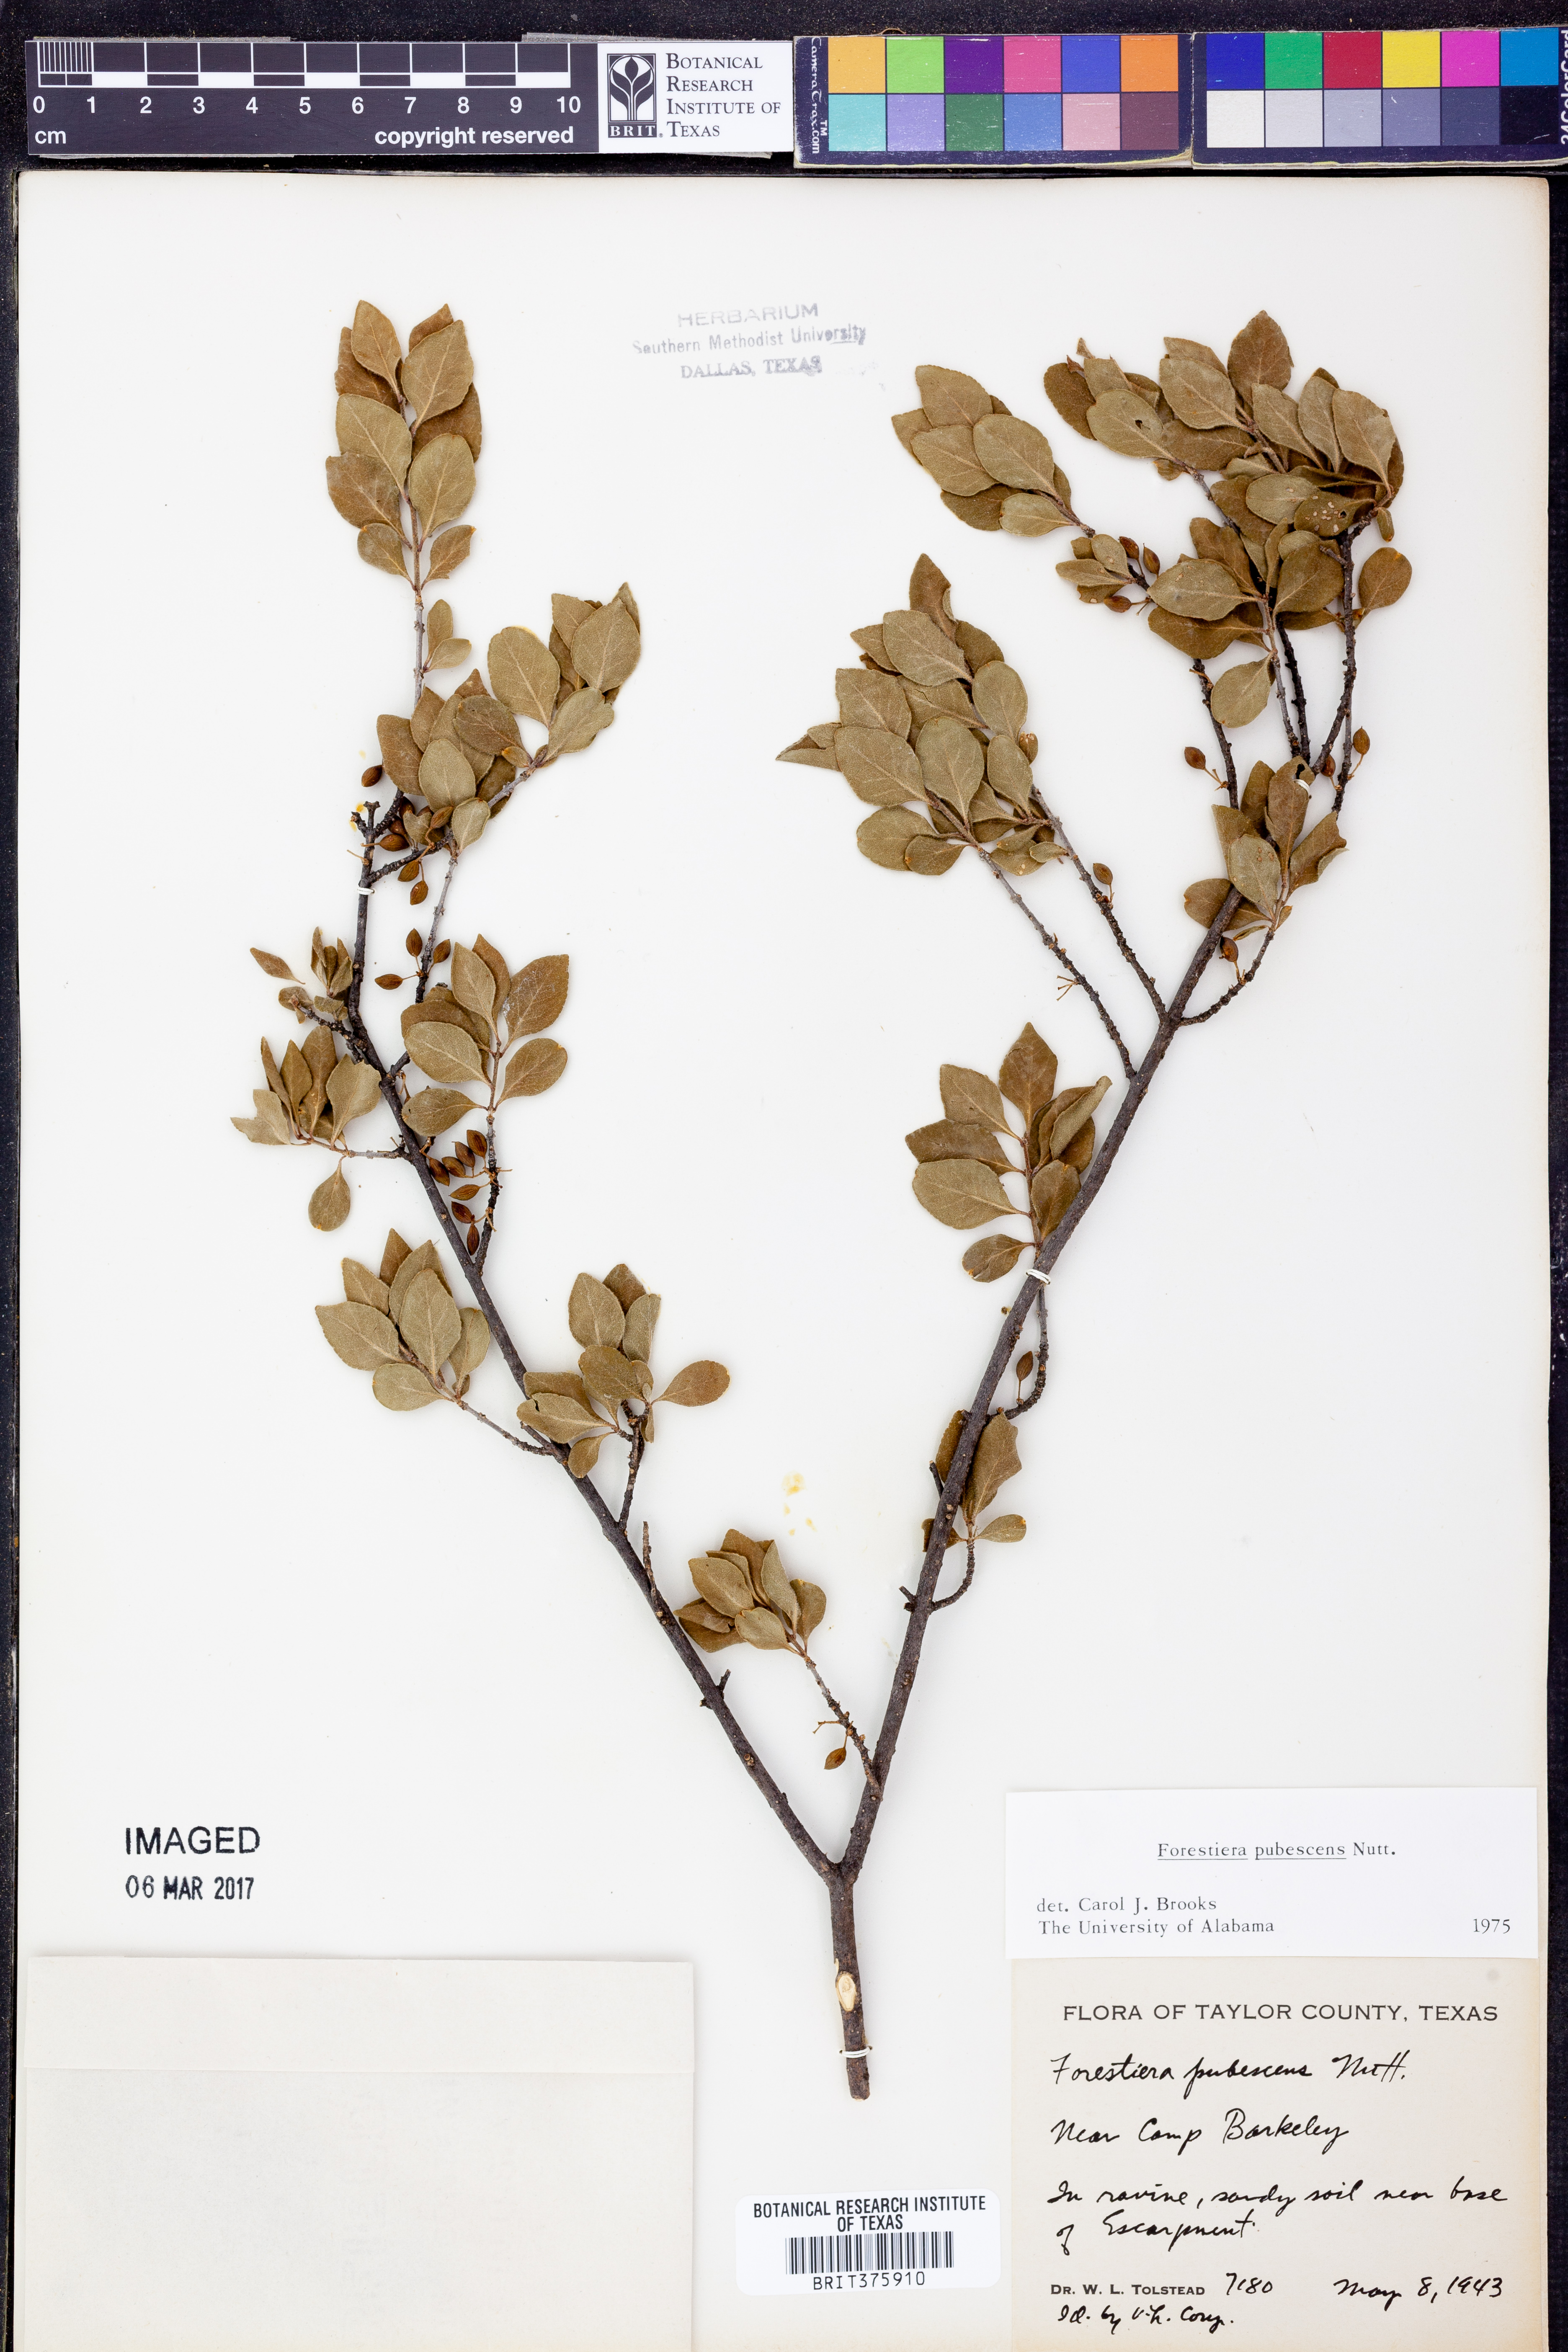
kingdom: Plantae
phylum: Tracheophyta
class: Magnoliopsida
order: Lamiales
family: Oleaceae
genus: Forestiera
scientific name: Forestiera pubescens
